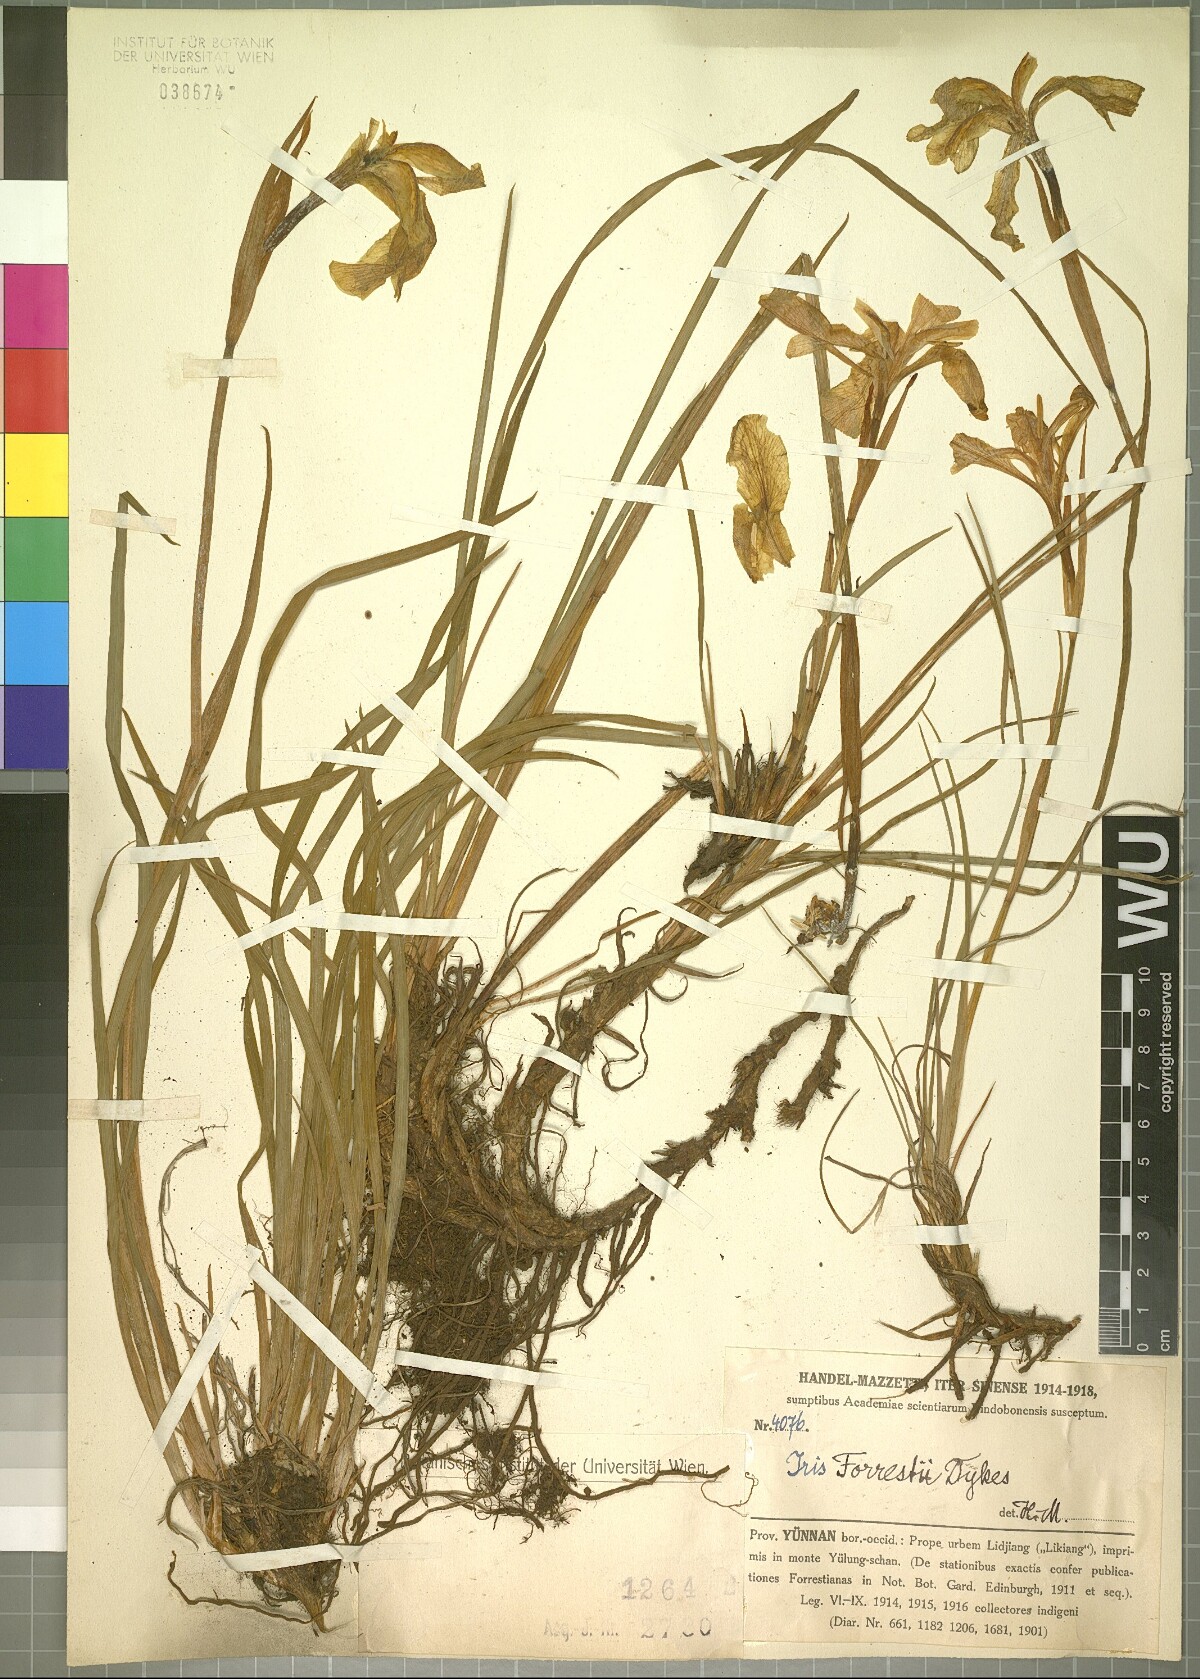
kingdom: Plantae
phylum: Tracheophyta
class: Liliopsida
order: Asparagales
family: Iridaceae
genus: Iris
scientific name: Iris forrestii
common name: Yunnan iris
